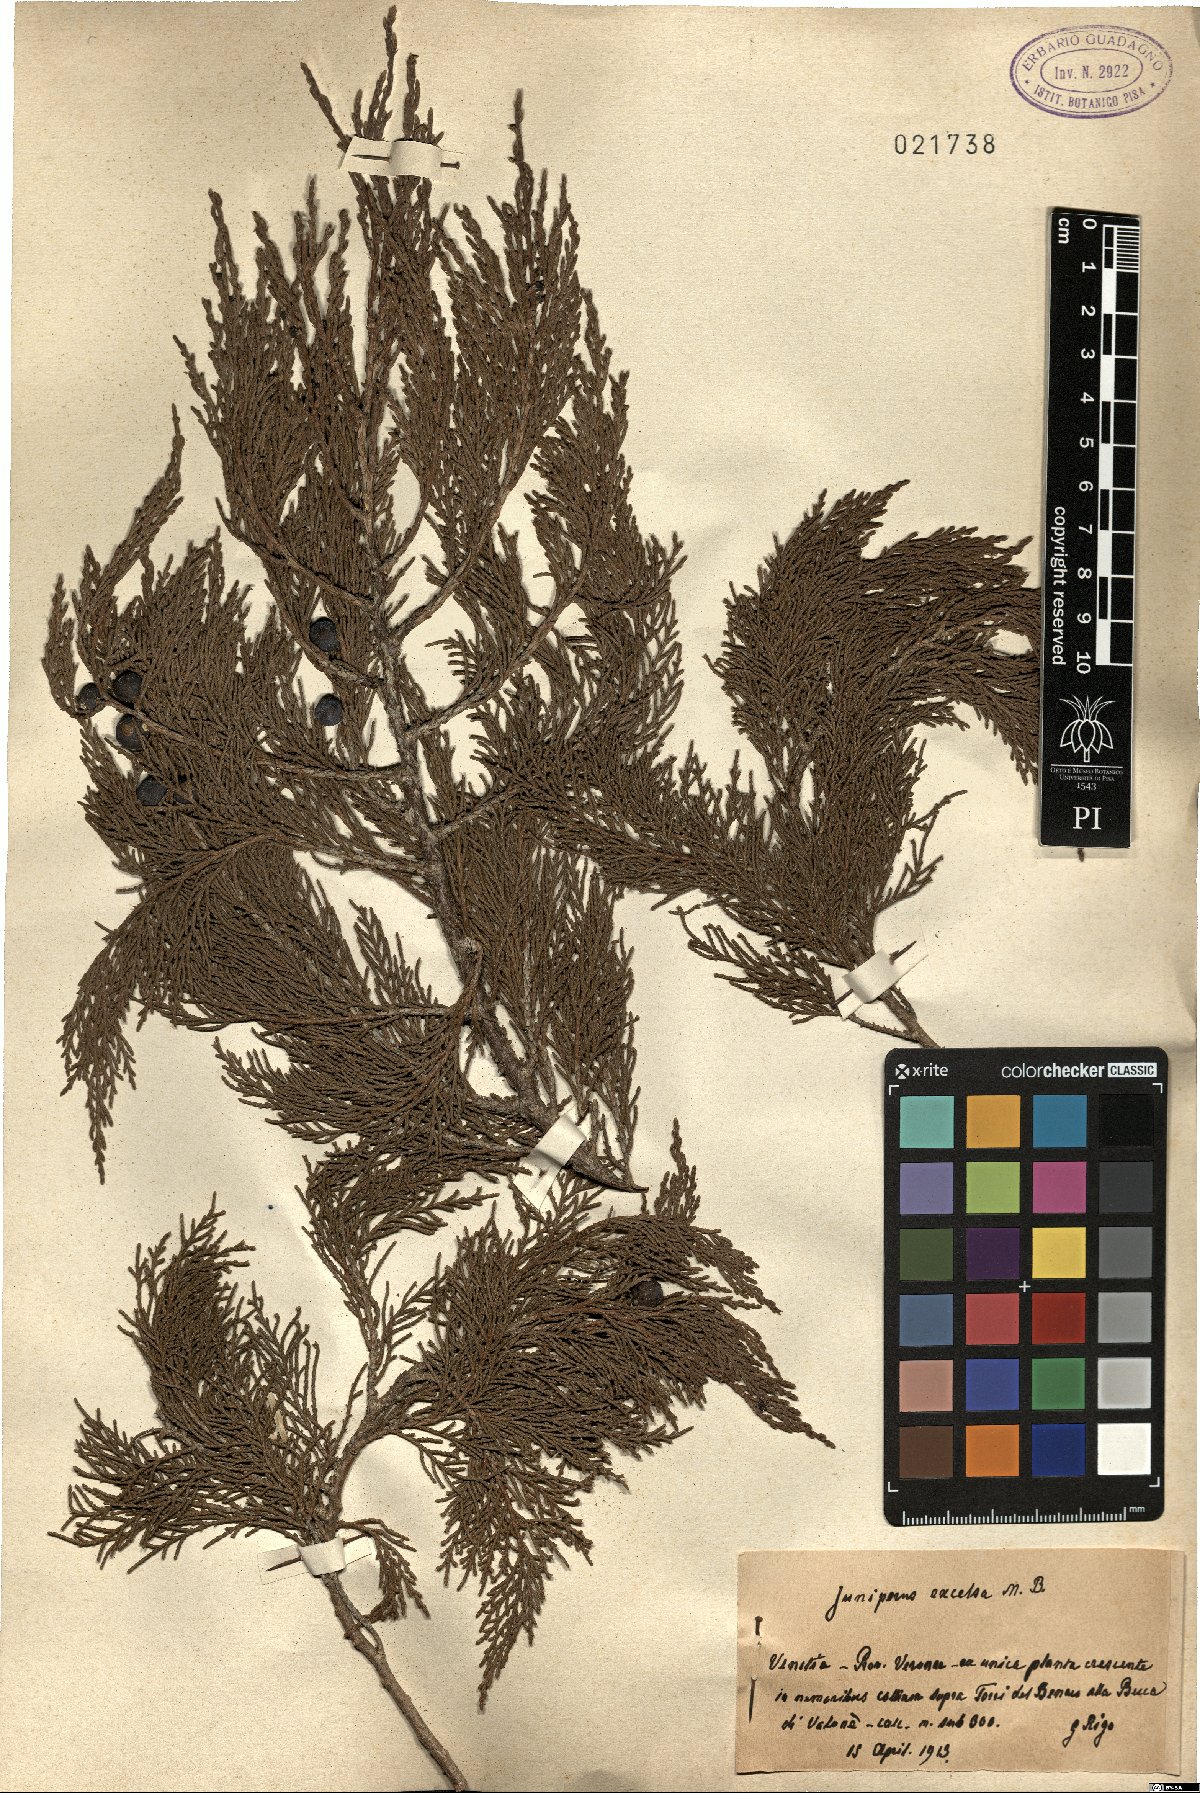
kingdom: Plantae
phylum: Tracheophyta
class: Pinopsida
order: Pinales
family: Cupressaceae
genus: Juniperus
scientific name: Juniperus excelsa
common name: Crimean juniper
